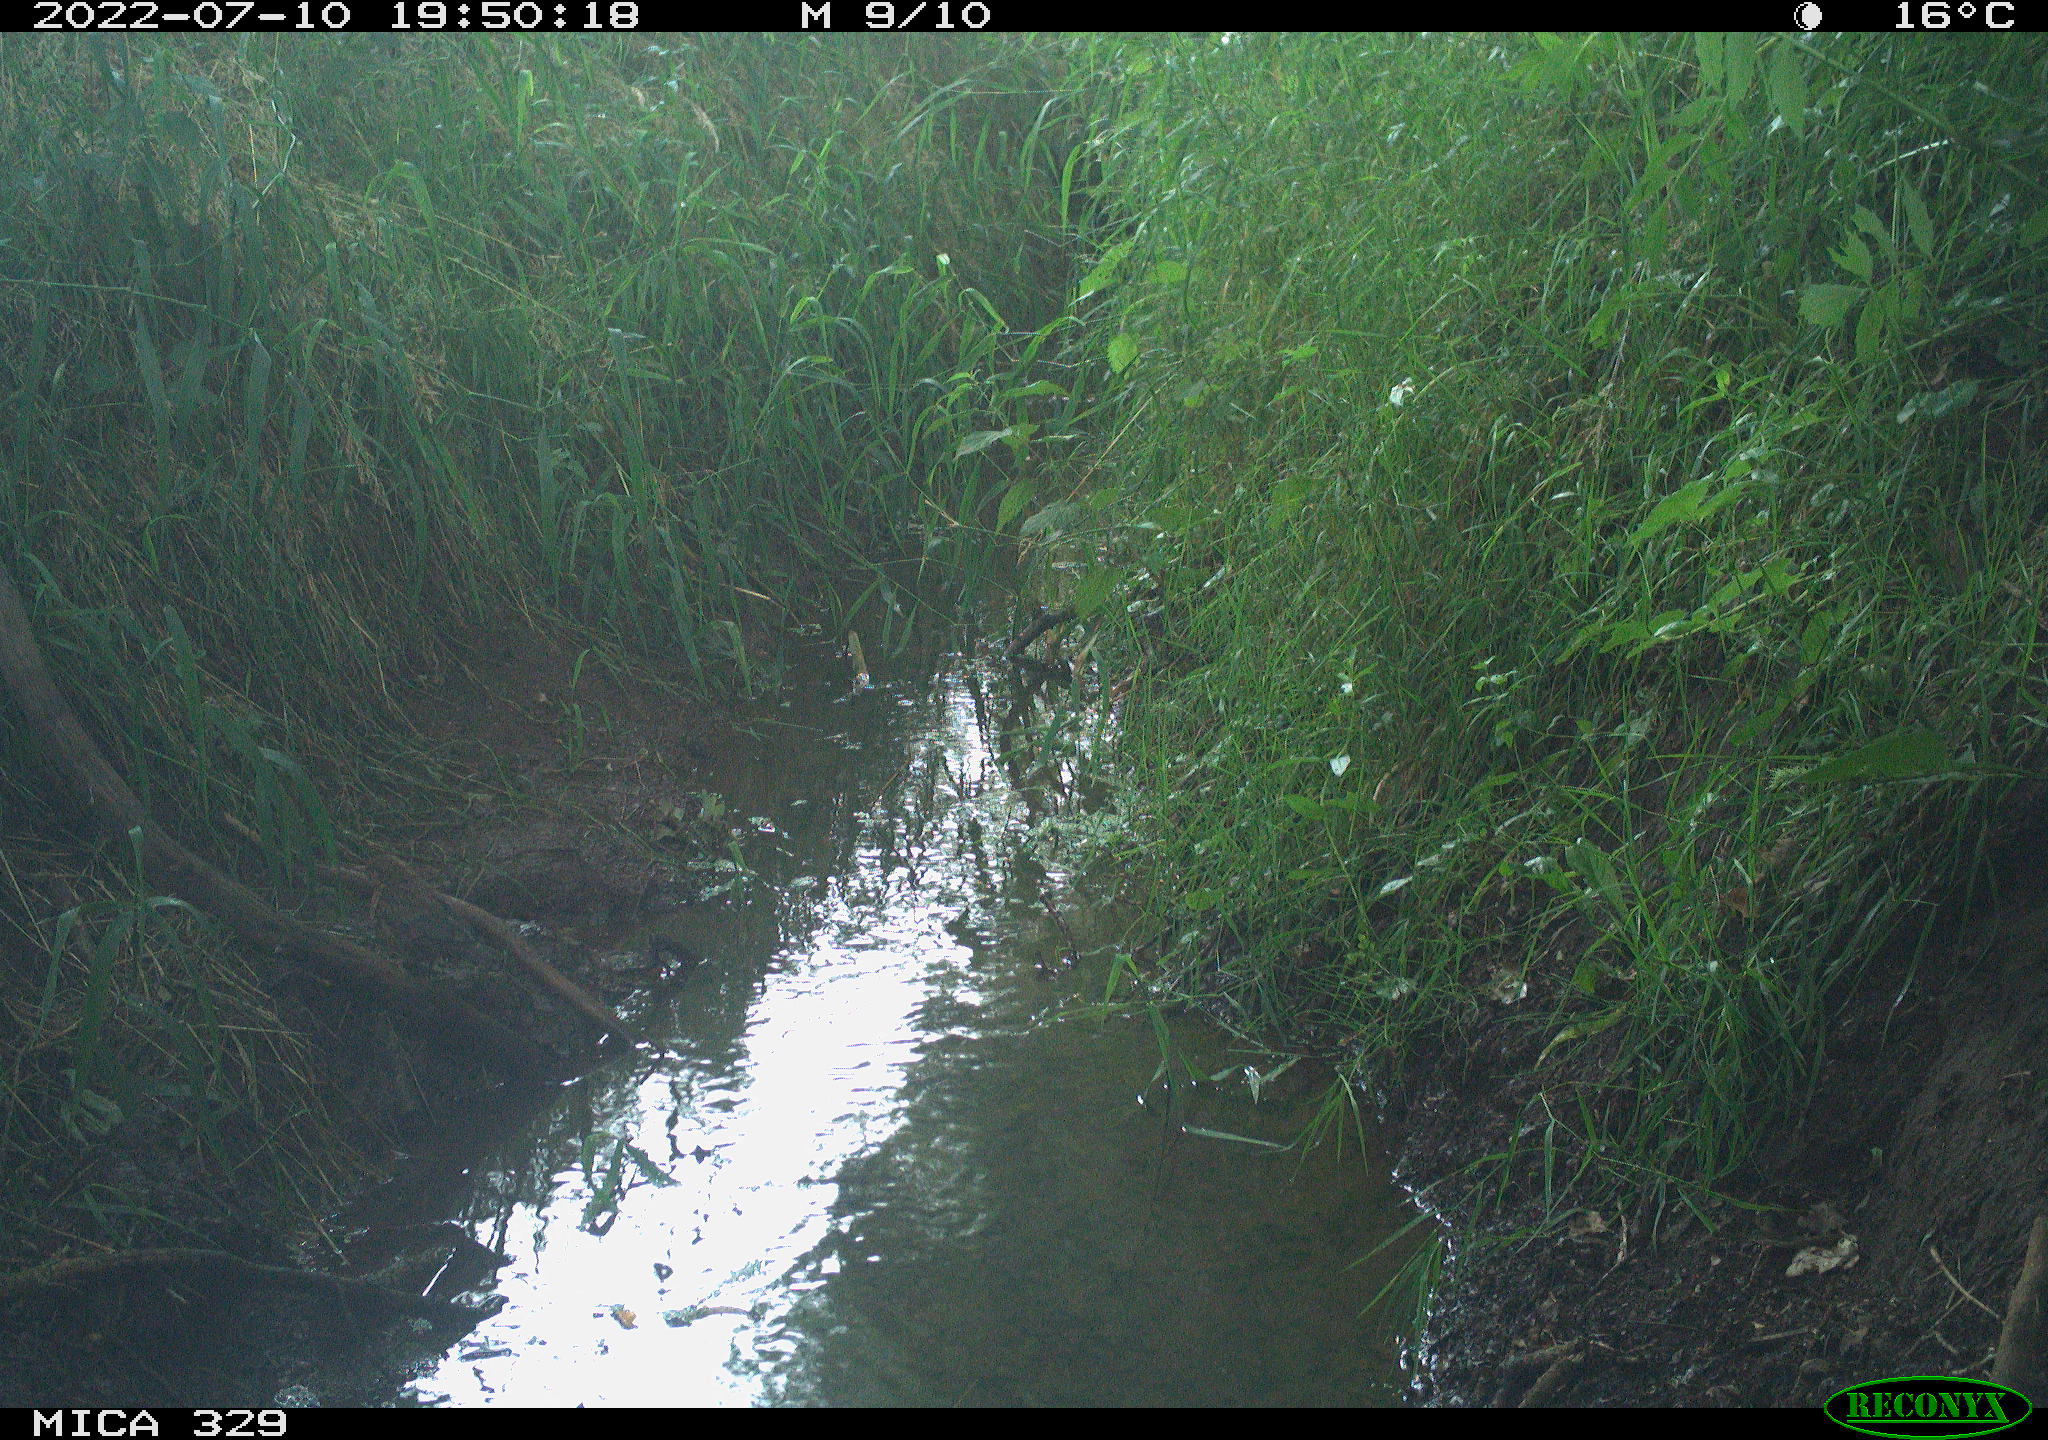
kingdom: Animalia
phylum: Chordata
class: Aves
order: Passeriformes
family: Turdidae
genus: Turdus
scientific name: Turdus merula
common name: Common blackbird
